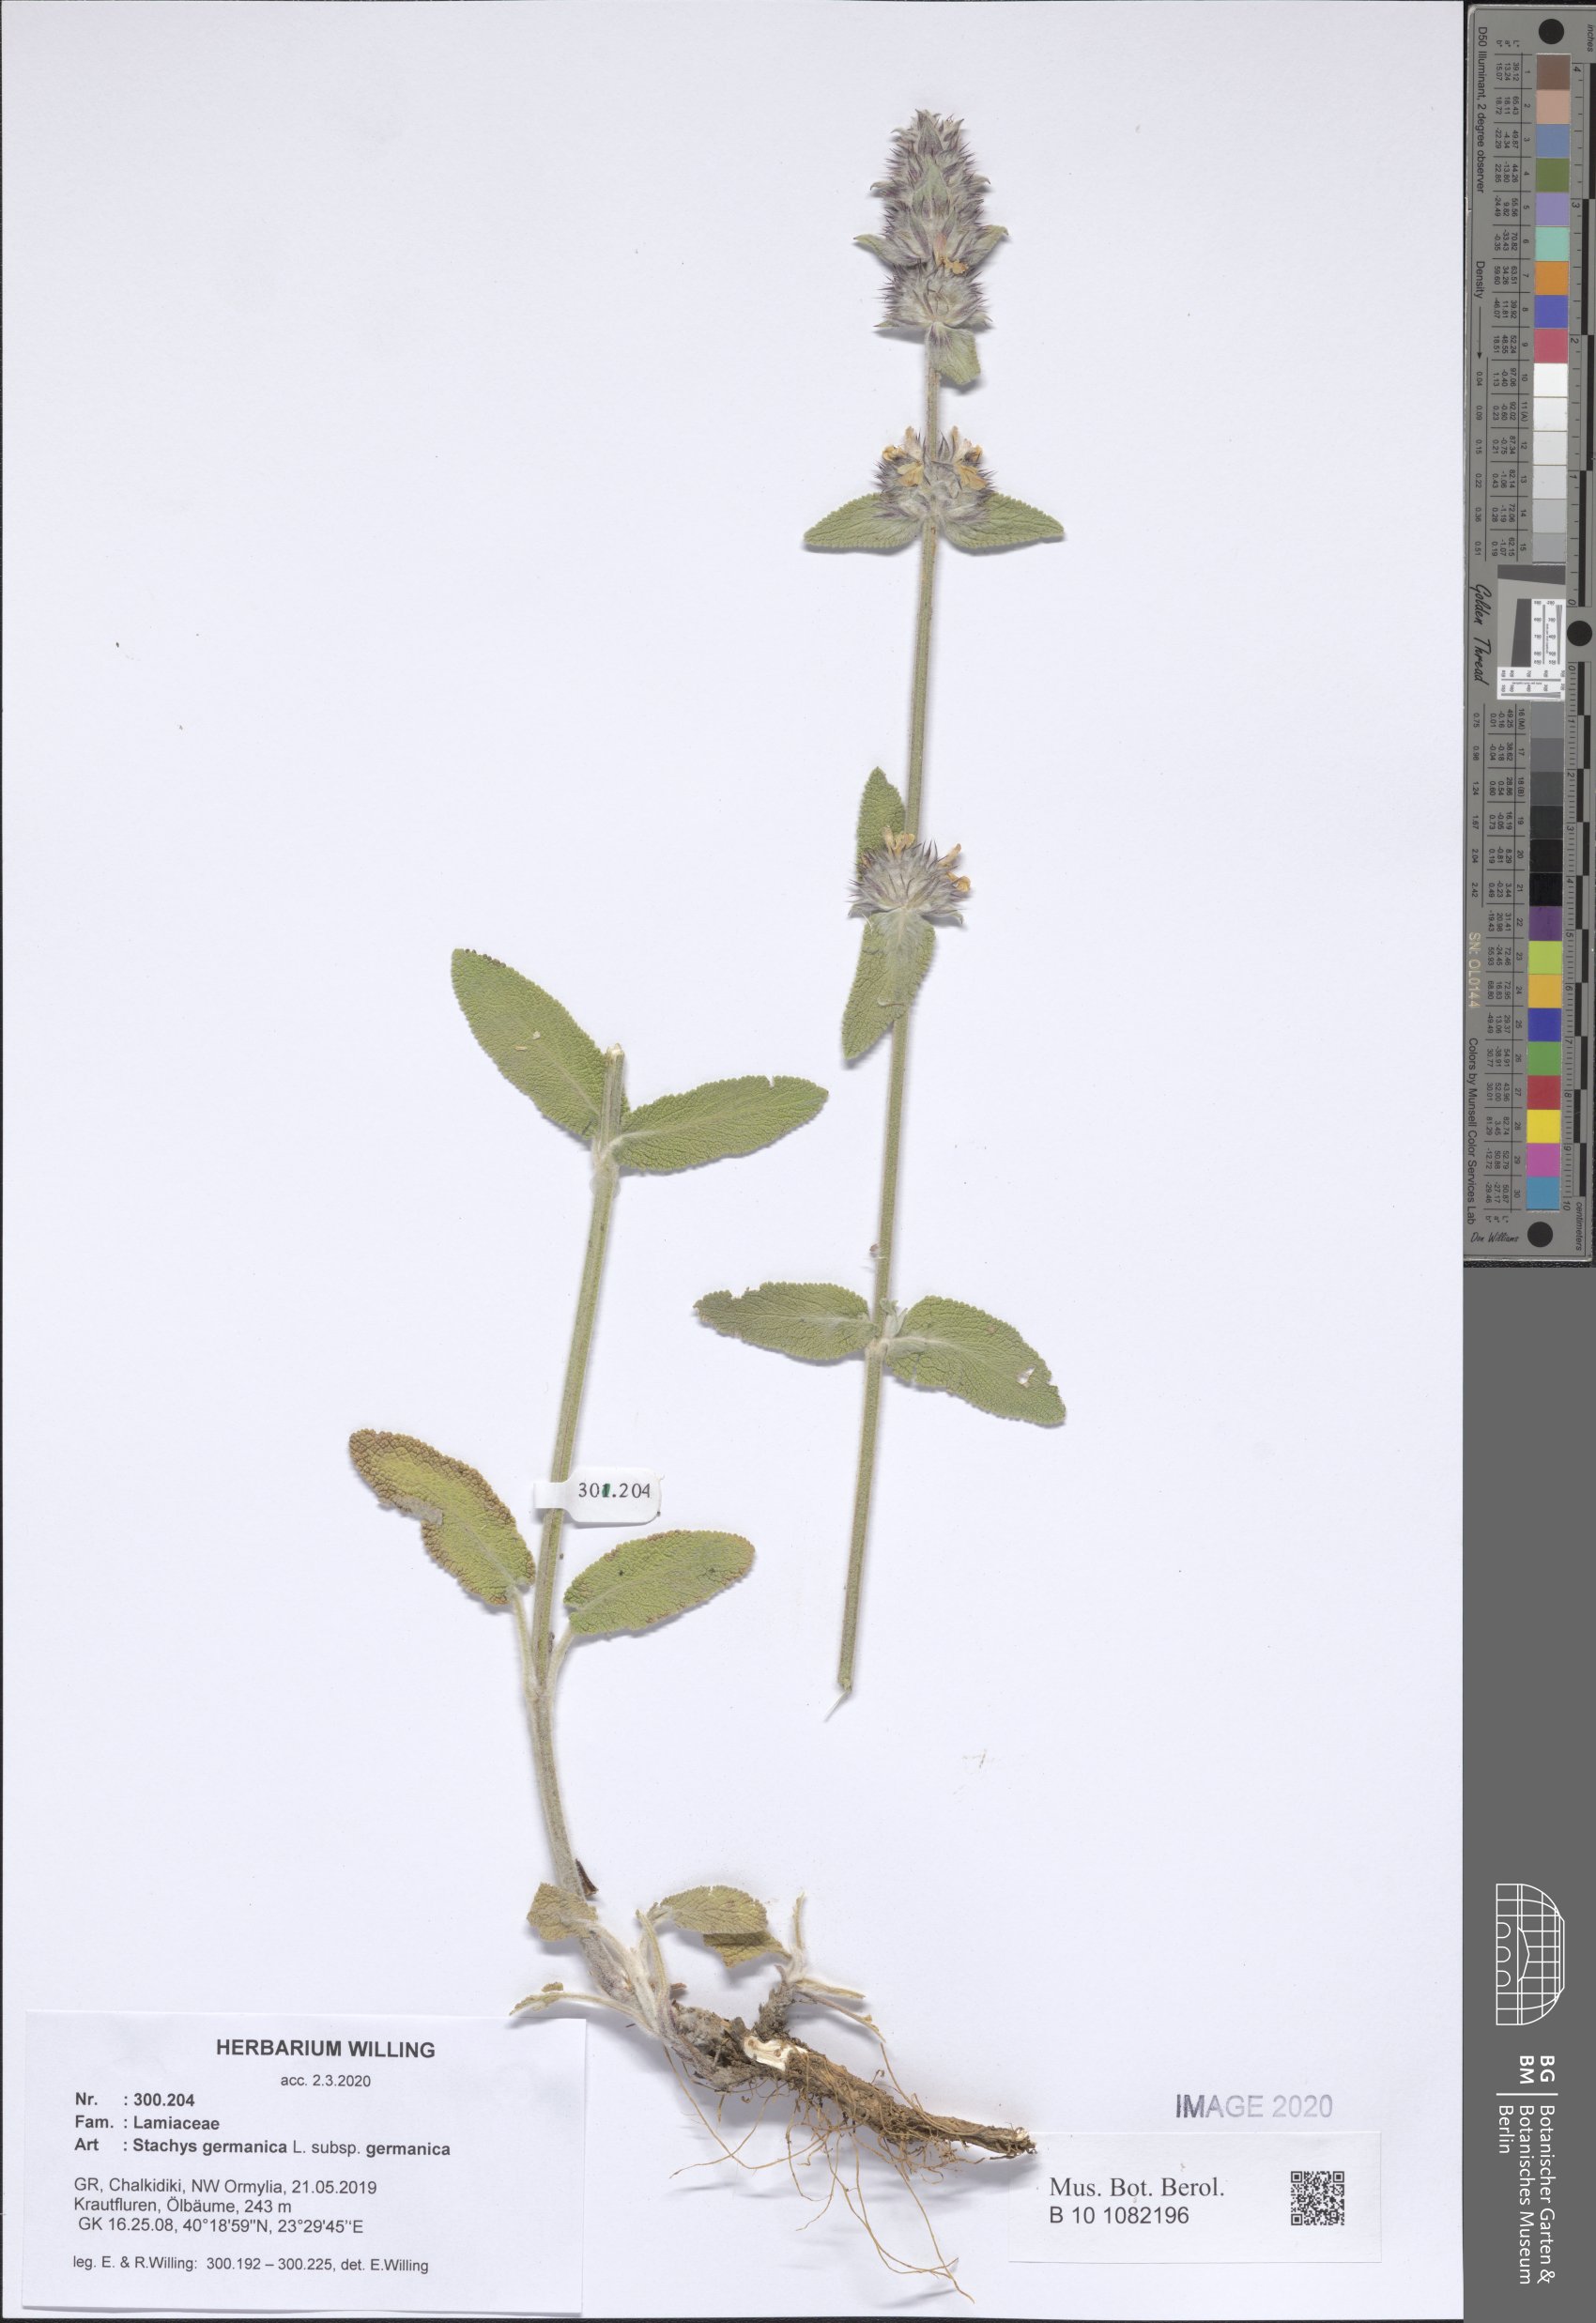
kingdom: Plantae
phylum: Tracheophyta
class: Magnoliopsida
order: Lamiales
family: Lamiaceae
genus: Stachys
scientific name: Stachys germanica
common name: Downy woundwort
